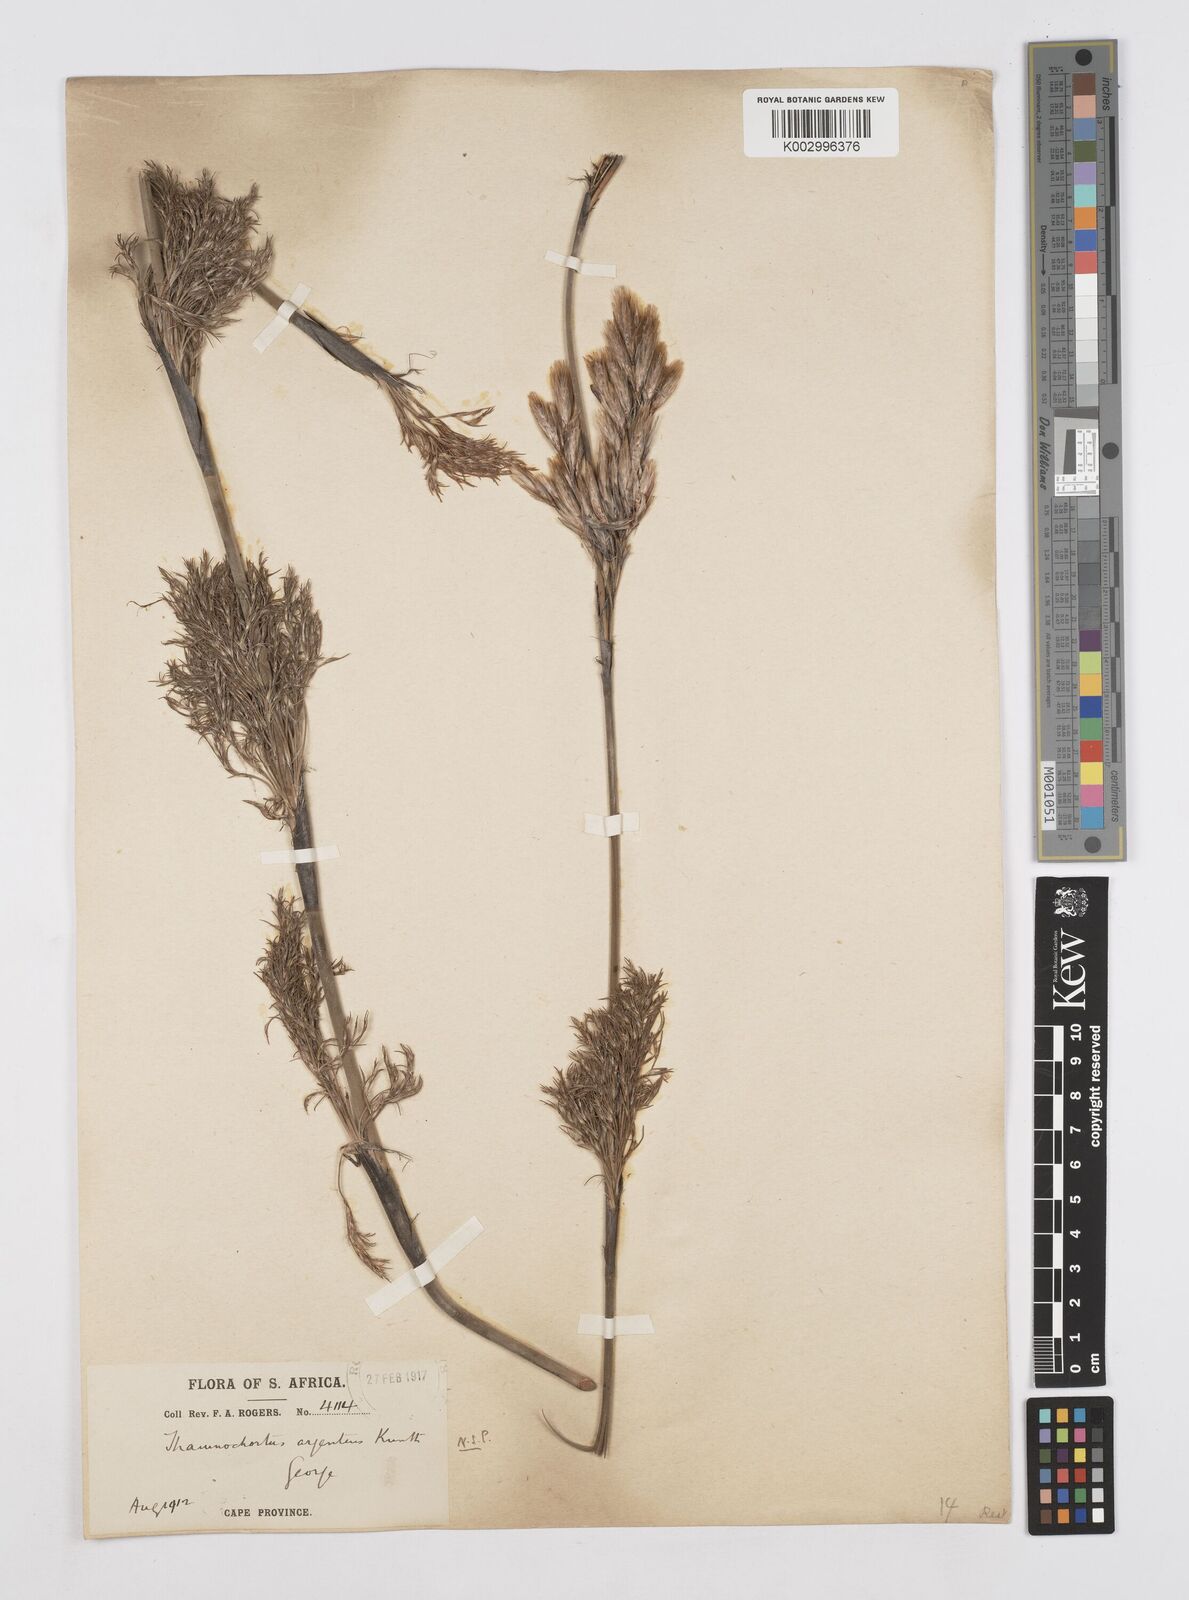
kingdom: Plantae
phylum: Tracheophyta
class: Liliopsida
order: Poales
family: Restionaceae
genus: Hypodiscus
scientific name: Hypodiscus argenteus
